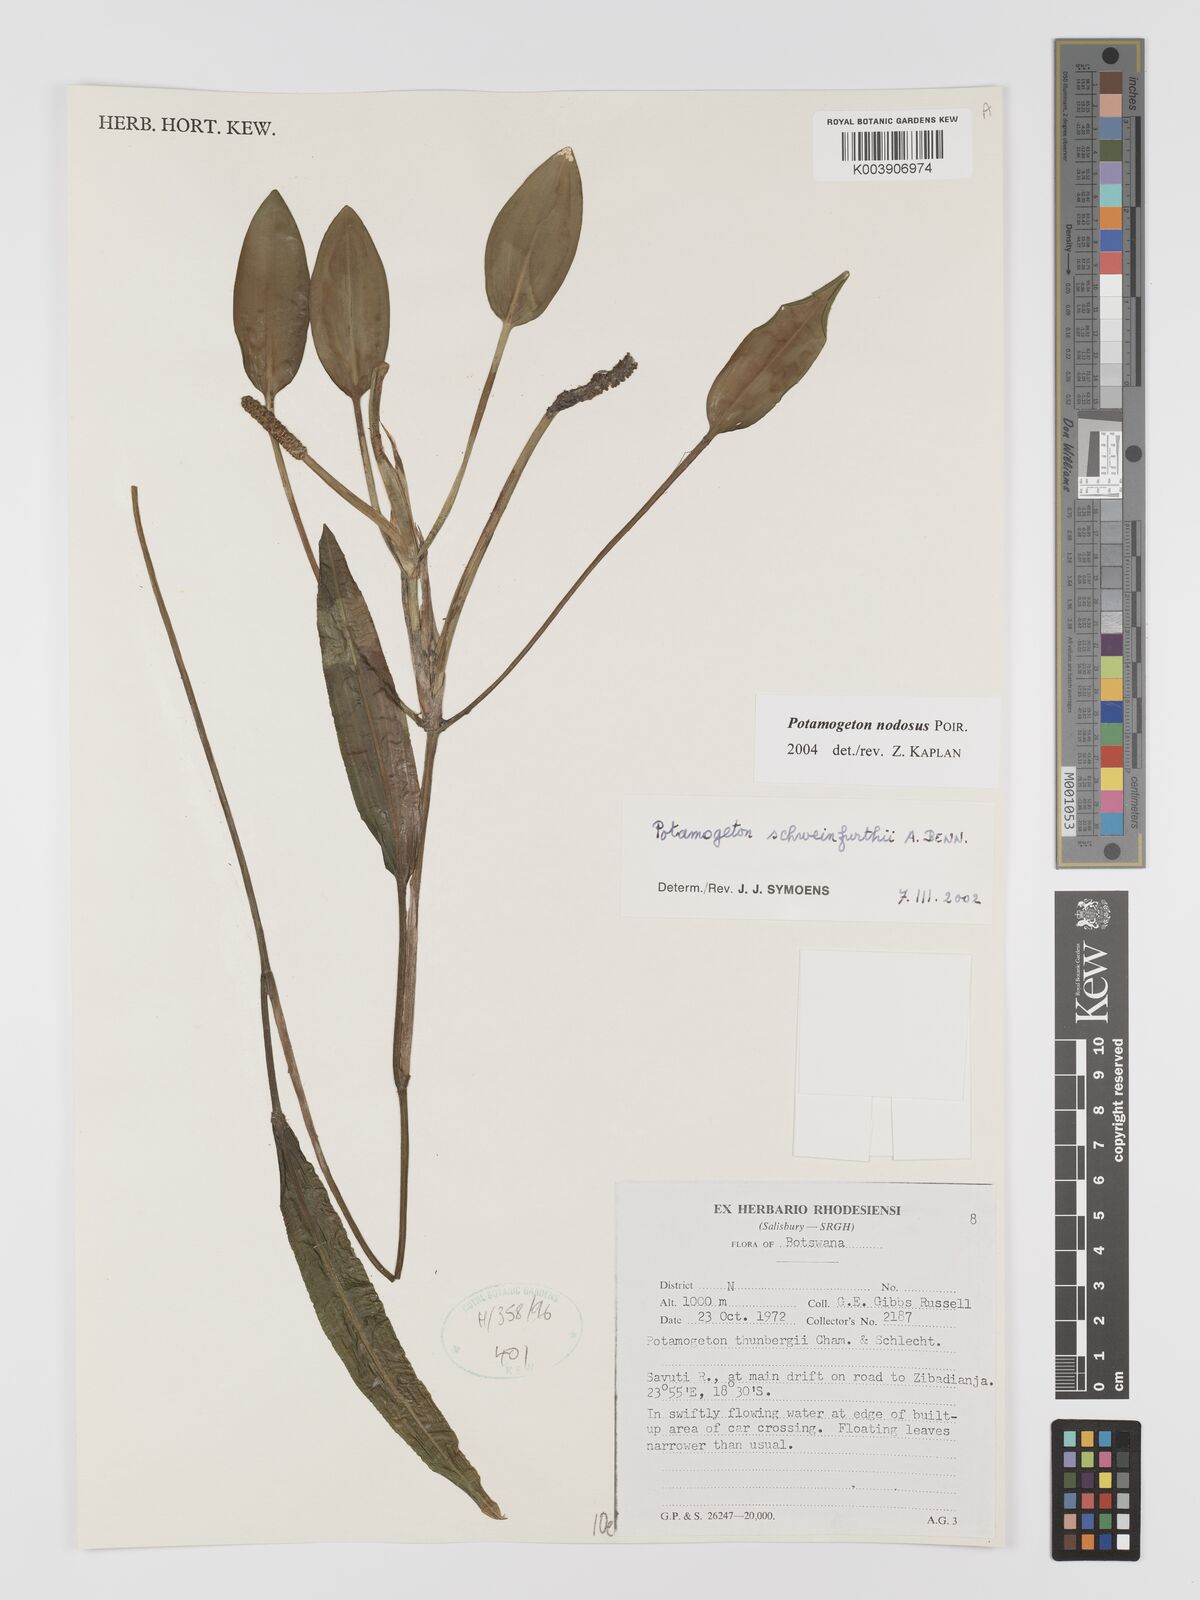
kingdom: Plantae
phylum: Tracheophyta
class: Liliopsida
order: Alismatales
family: Potamogetonaceae
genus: Potamogeton
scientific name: Potamogeton nodosus
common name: Loddon pondweed
